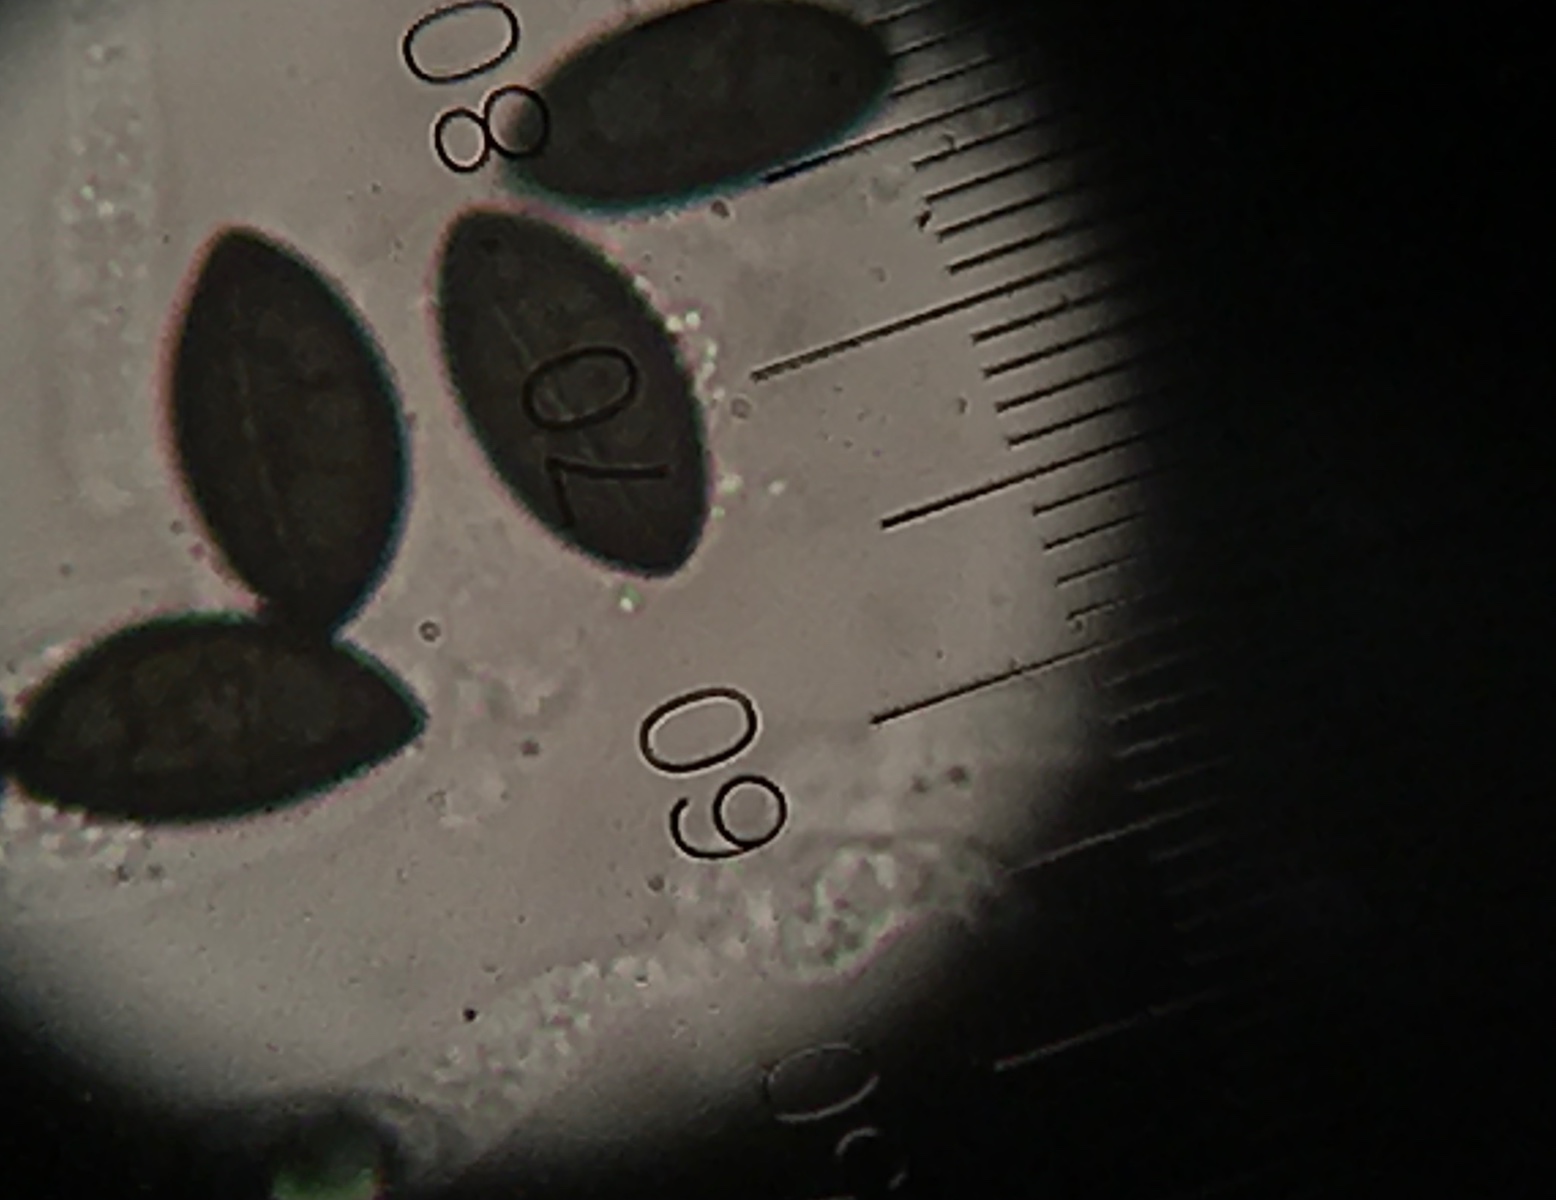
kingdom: Fungi
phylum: Ascomycota
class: Sordariomycetes
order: Xylariales
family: Xylariaceae
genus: Nemania
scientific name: Nemania confluens
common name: indsænket kuldyne
